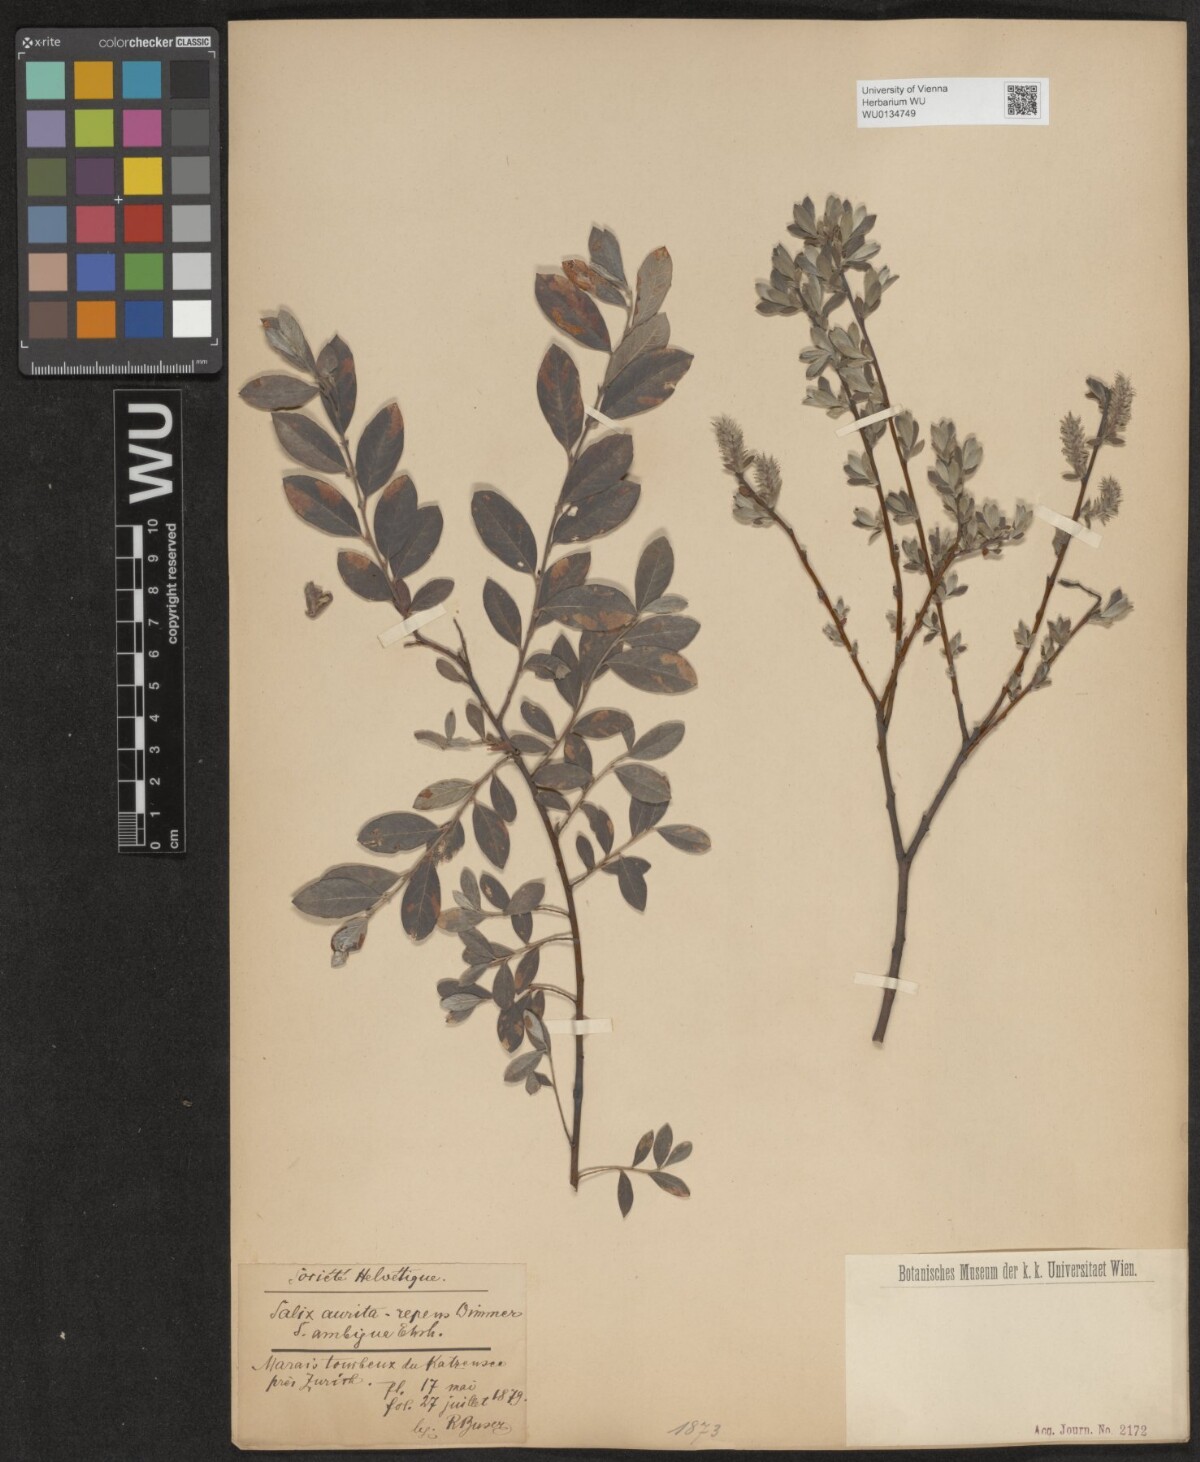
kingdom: Plantae
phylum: Tracheophyta
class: Magnoliopsida
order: Malpighiales
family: Salicaceae
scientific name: Salicaceae
